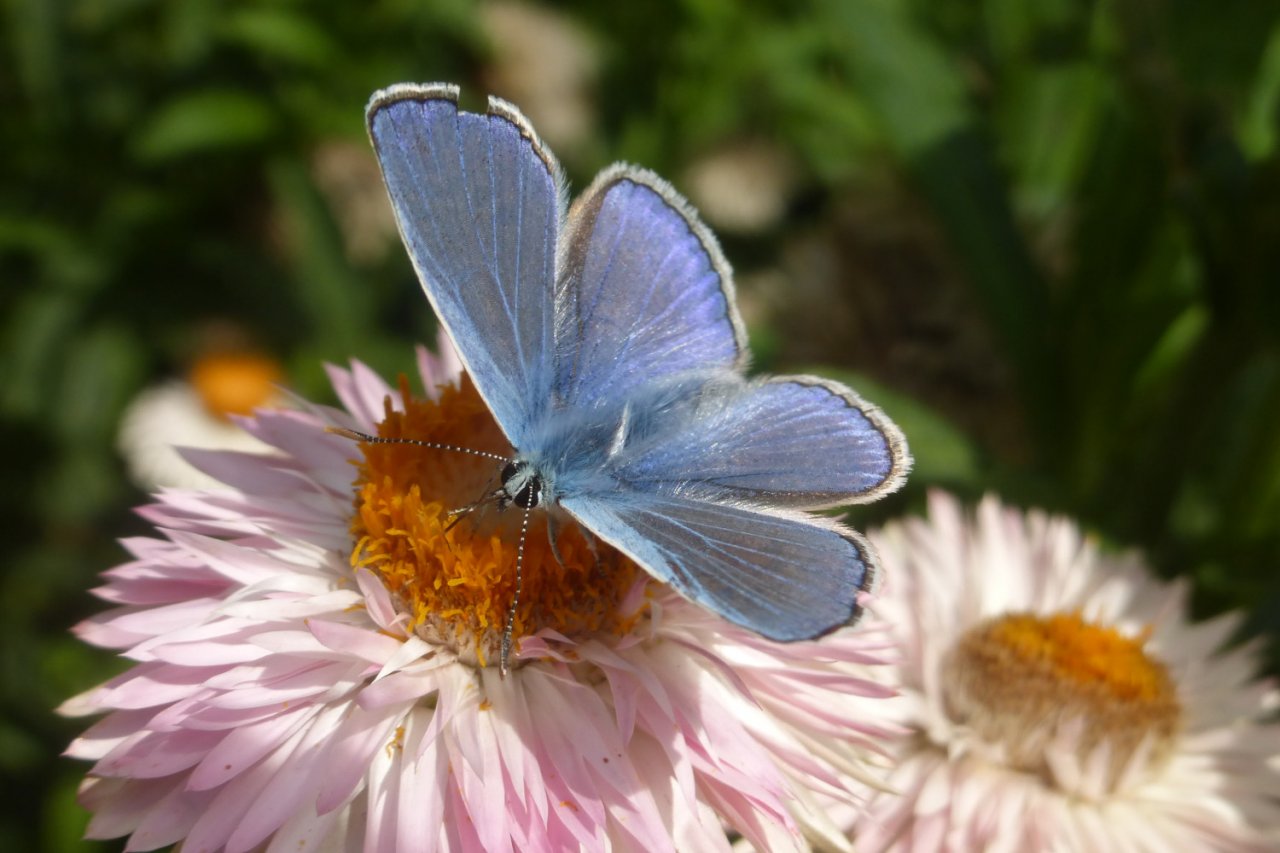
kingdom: Animalia
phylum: Arthropoda
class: Insecta
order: Lepidoptera
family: Lycaenidae
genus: Polyommatus
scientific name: Polyommatus icarus
